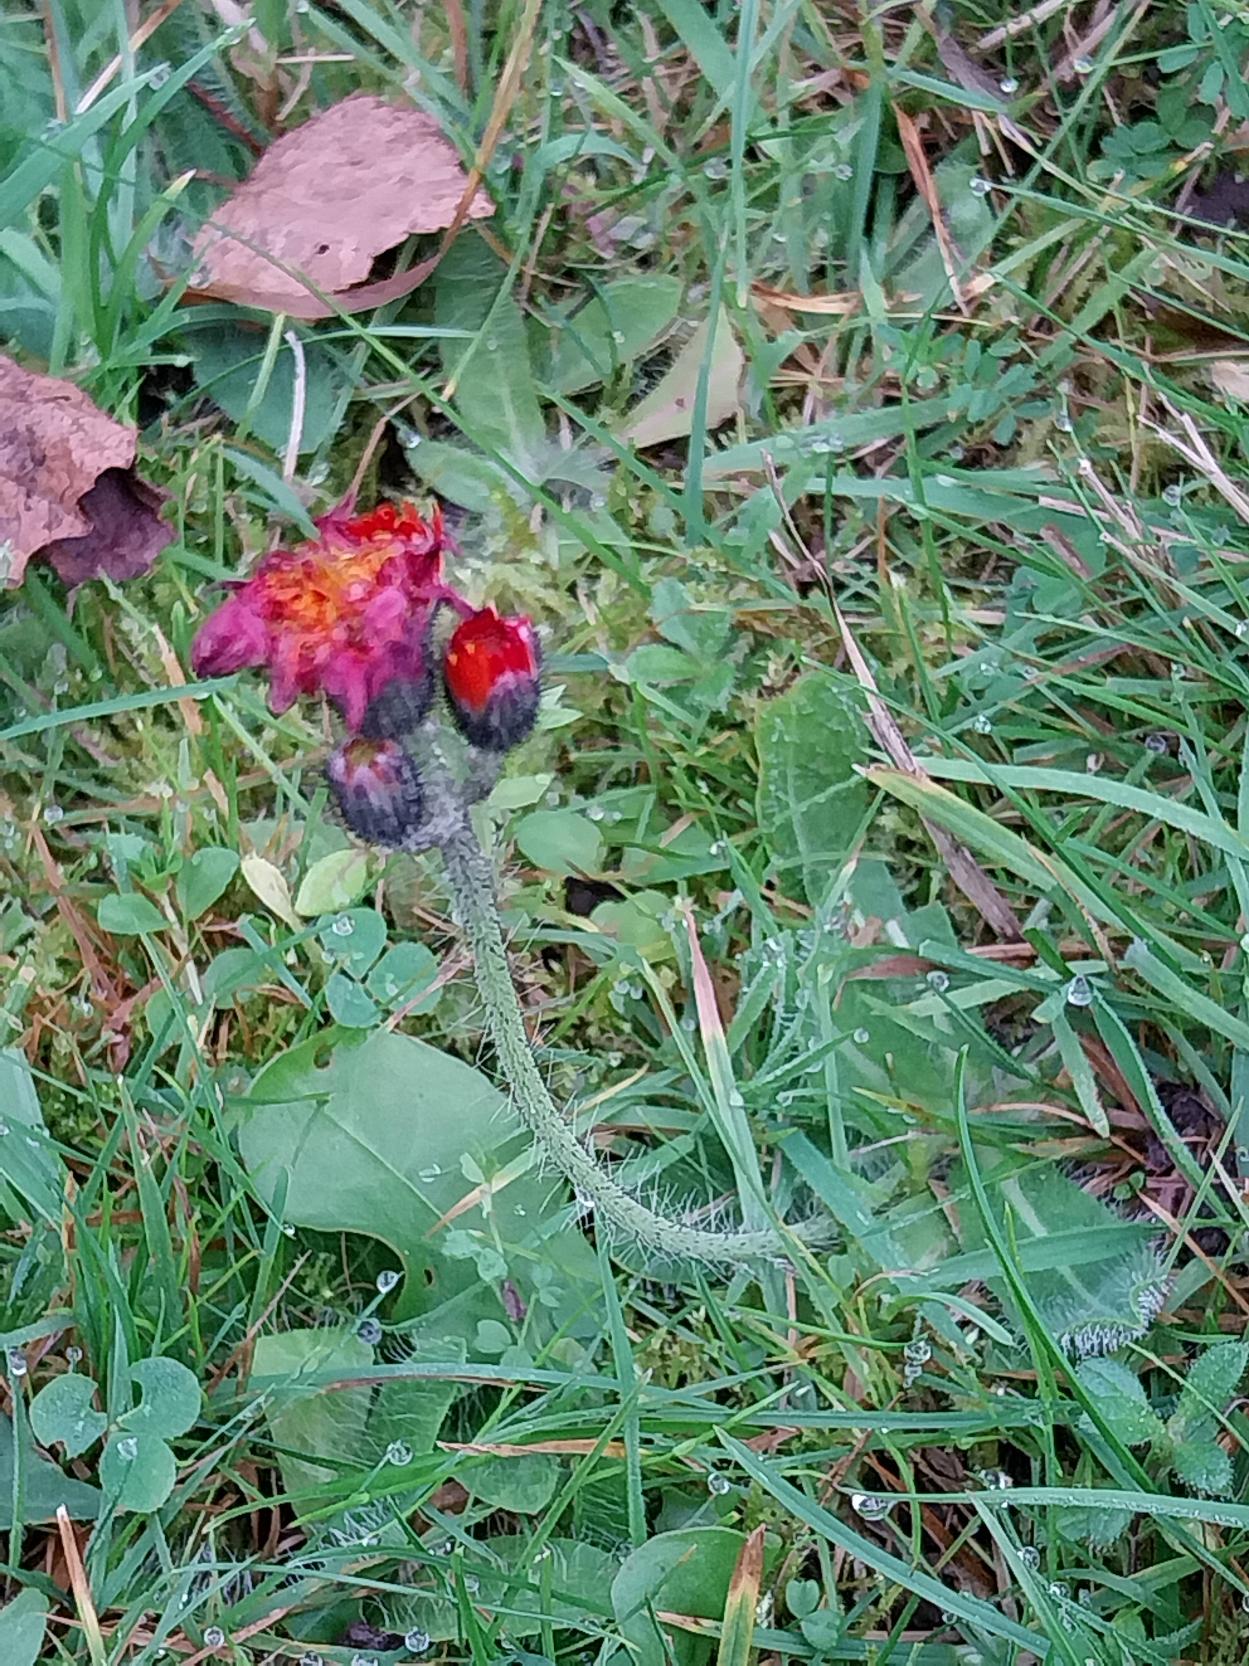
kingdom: Plantae
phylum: Tracheophyta
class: Magnoliopsida
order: Asterales
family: Asteraceae
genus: Pilosella
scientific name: Pilosella aurantiaca
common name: Pomerans-høgeurt
